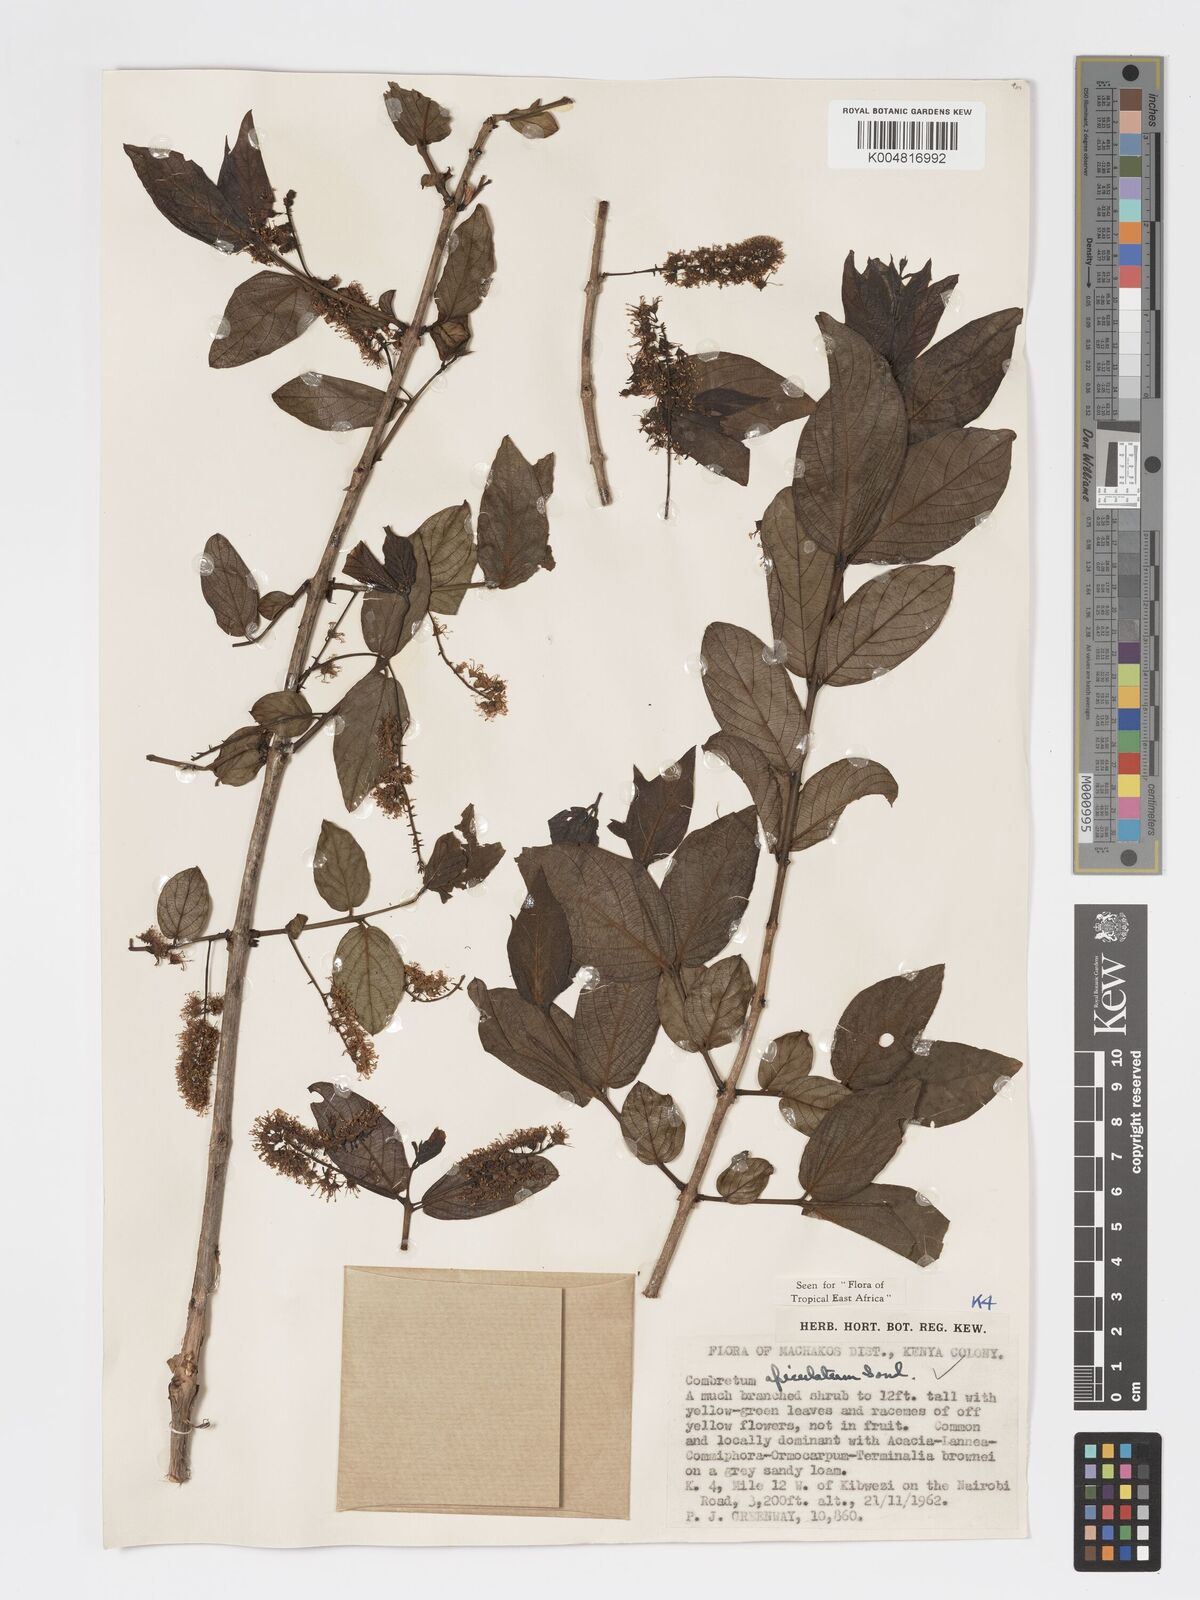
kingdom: Plantae
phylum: Tracheophyta
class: Magnoliopsida
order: Myrtales
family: Combretaceae
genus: Combretum
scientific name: Combretum apiculatum
